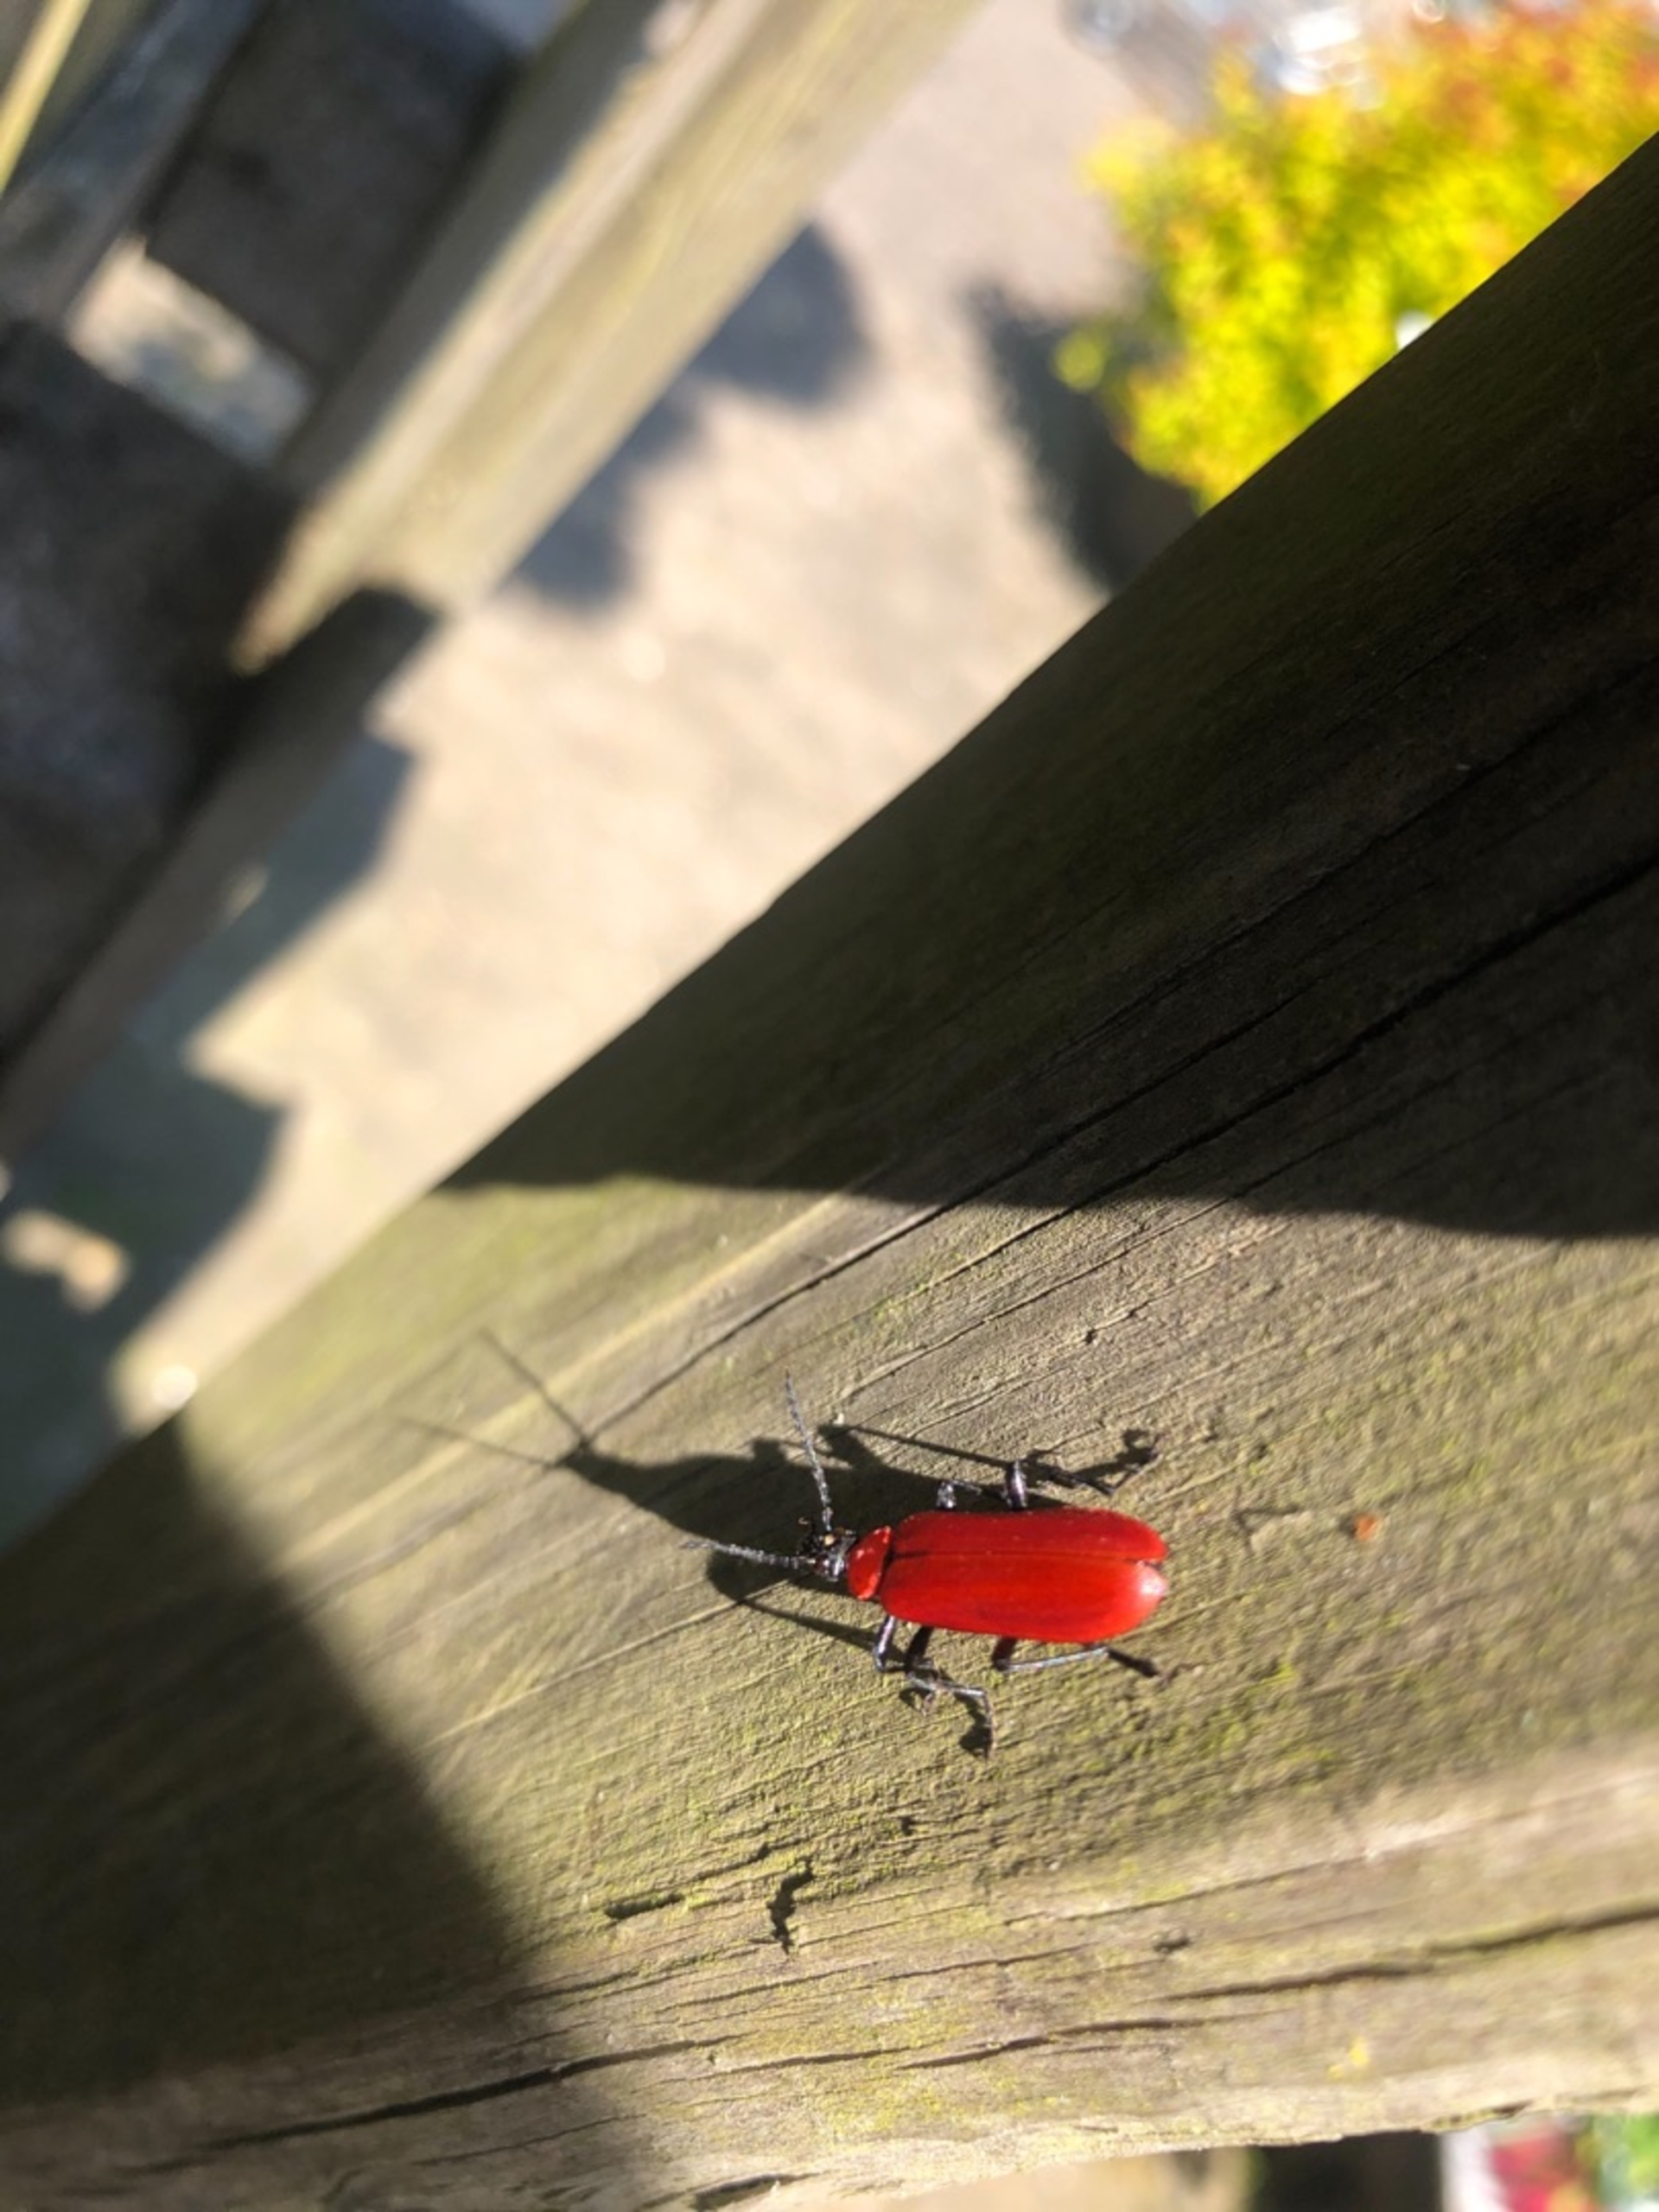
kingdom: Animalia
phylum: Arthropoda
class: Insecta
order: Coleoptera
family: Pyrochroidae
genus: Pyrochroa
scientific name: Pyrochroa coccinea
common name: Sorthovedet kardinalbille
